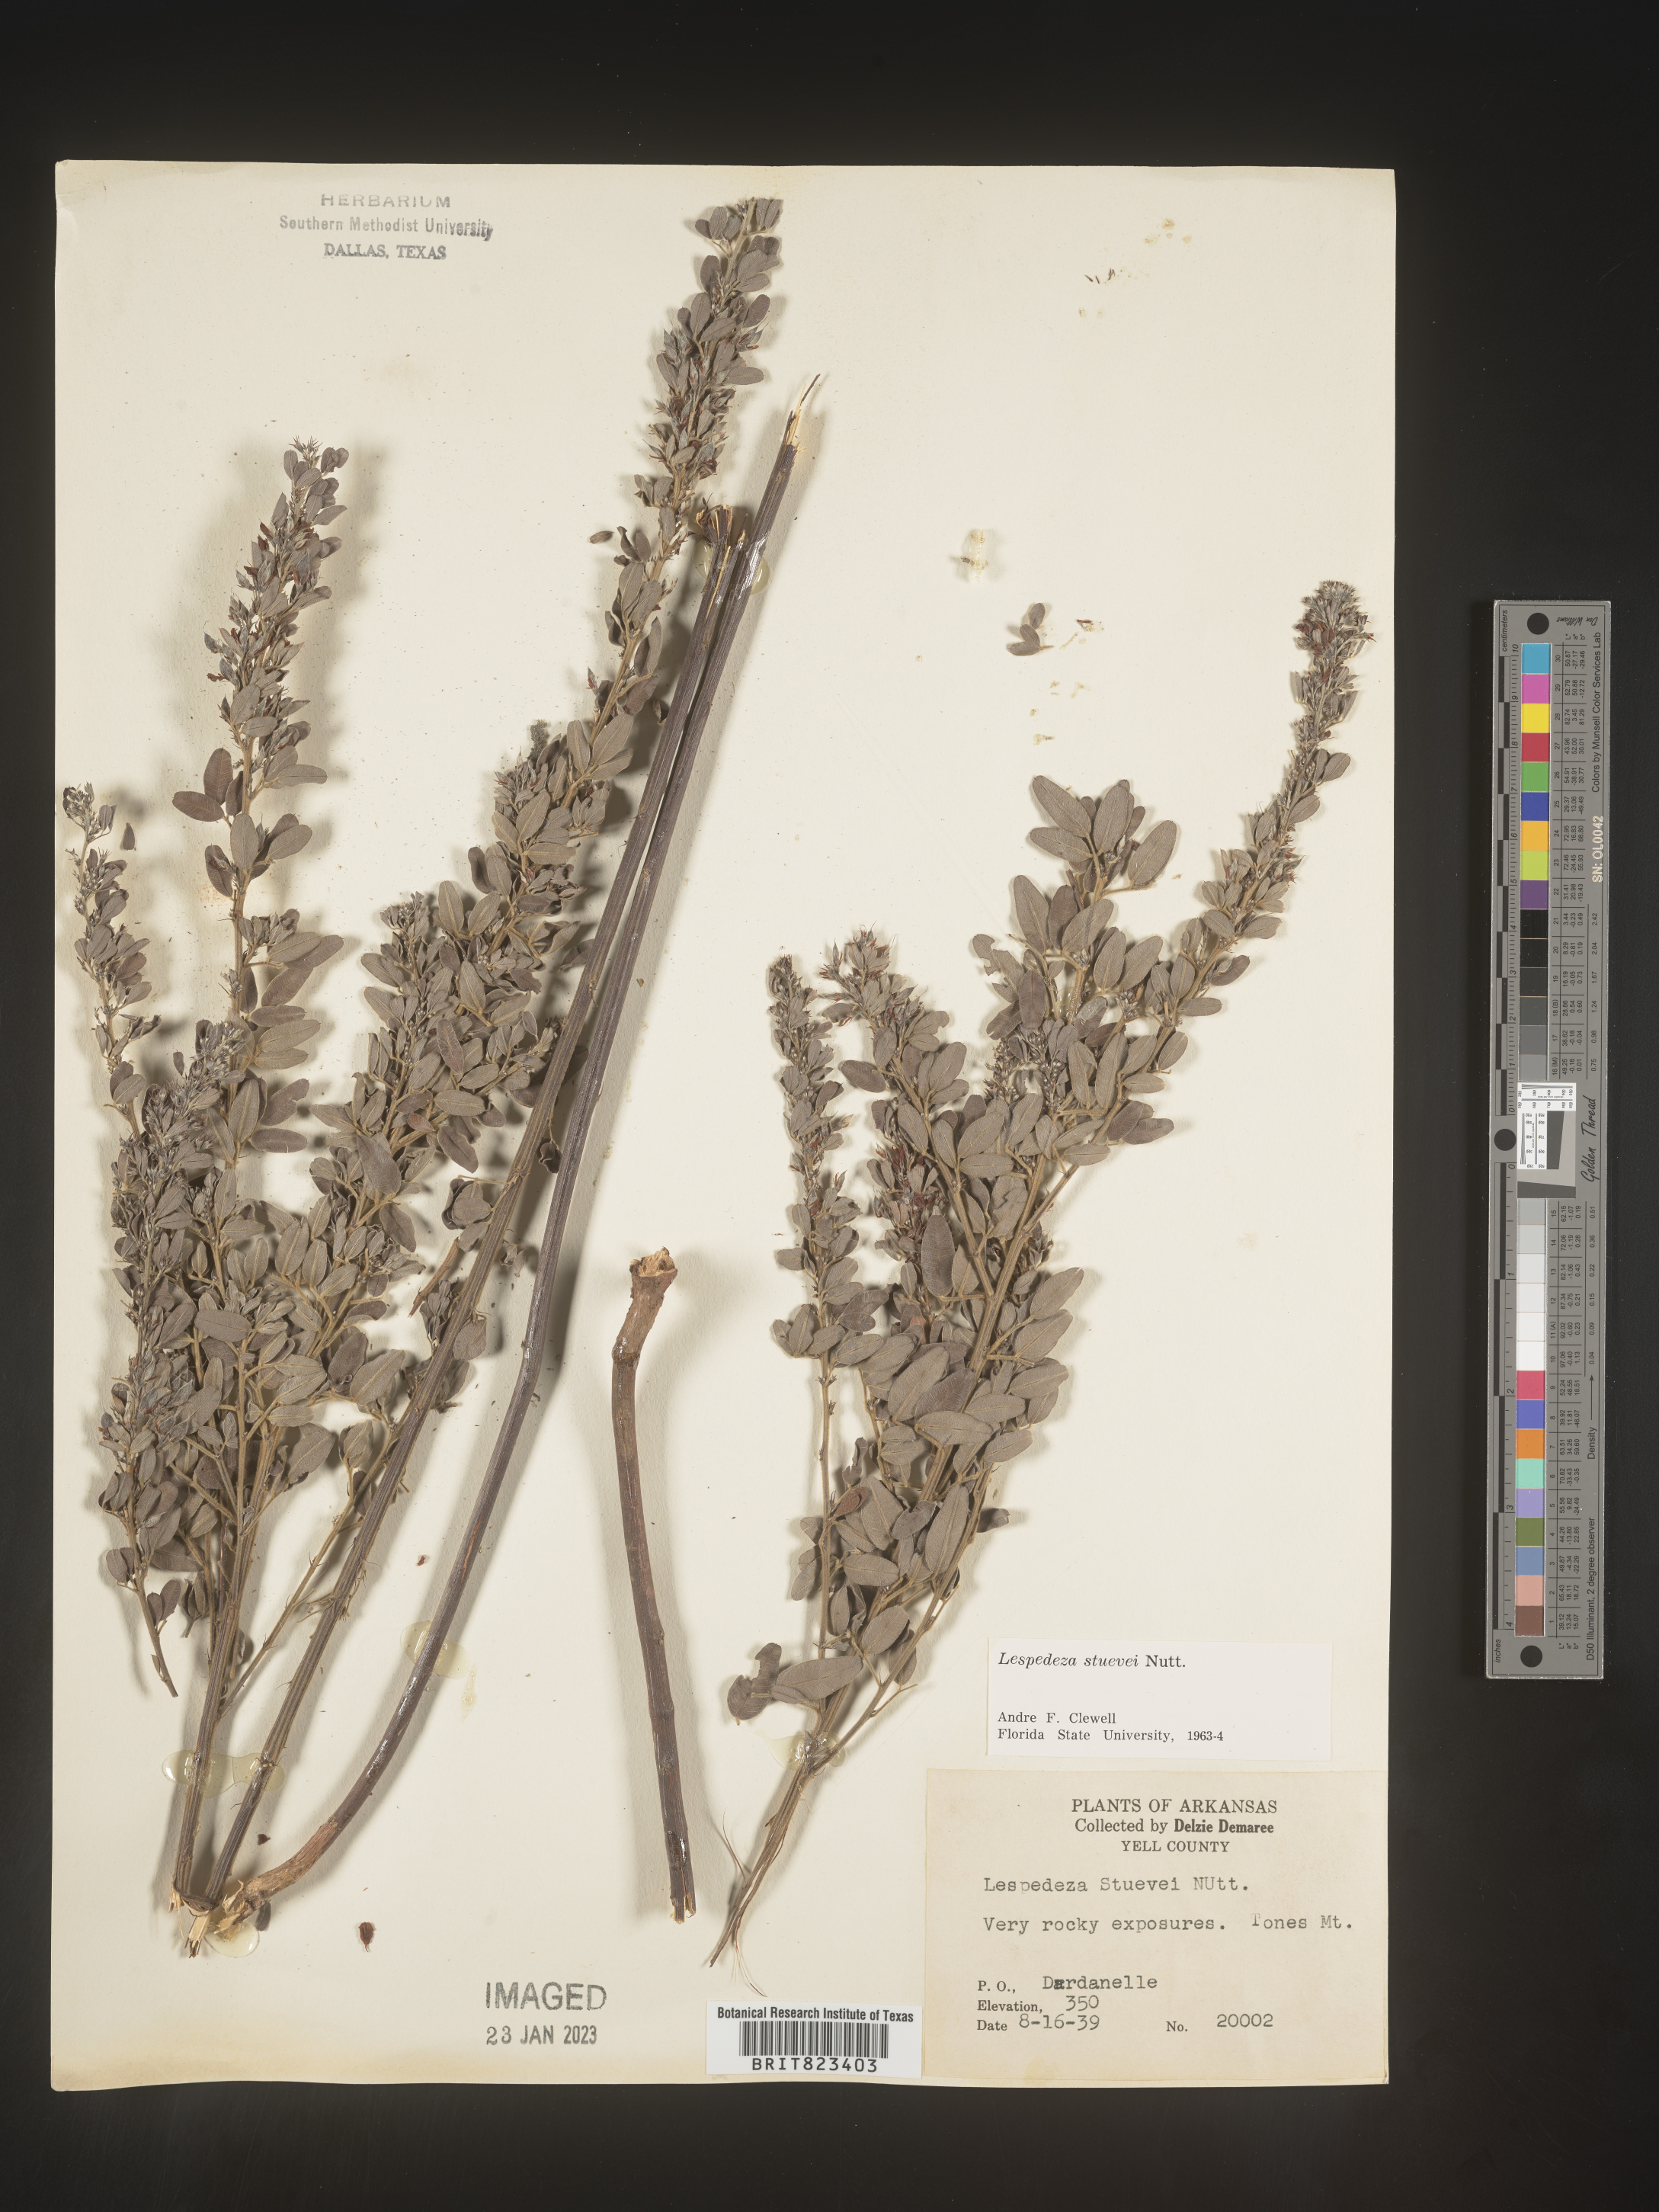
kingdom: Plantae
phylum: Tracheophyta
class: Magnoliopsida
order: Fabales
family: Fabaceae
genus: Lespedeza
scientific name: Lespedeza stuevei
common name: Tall bush-clover
